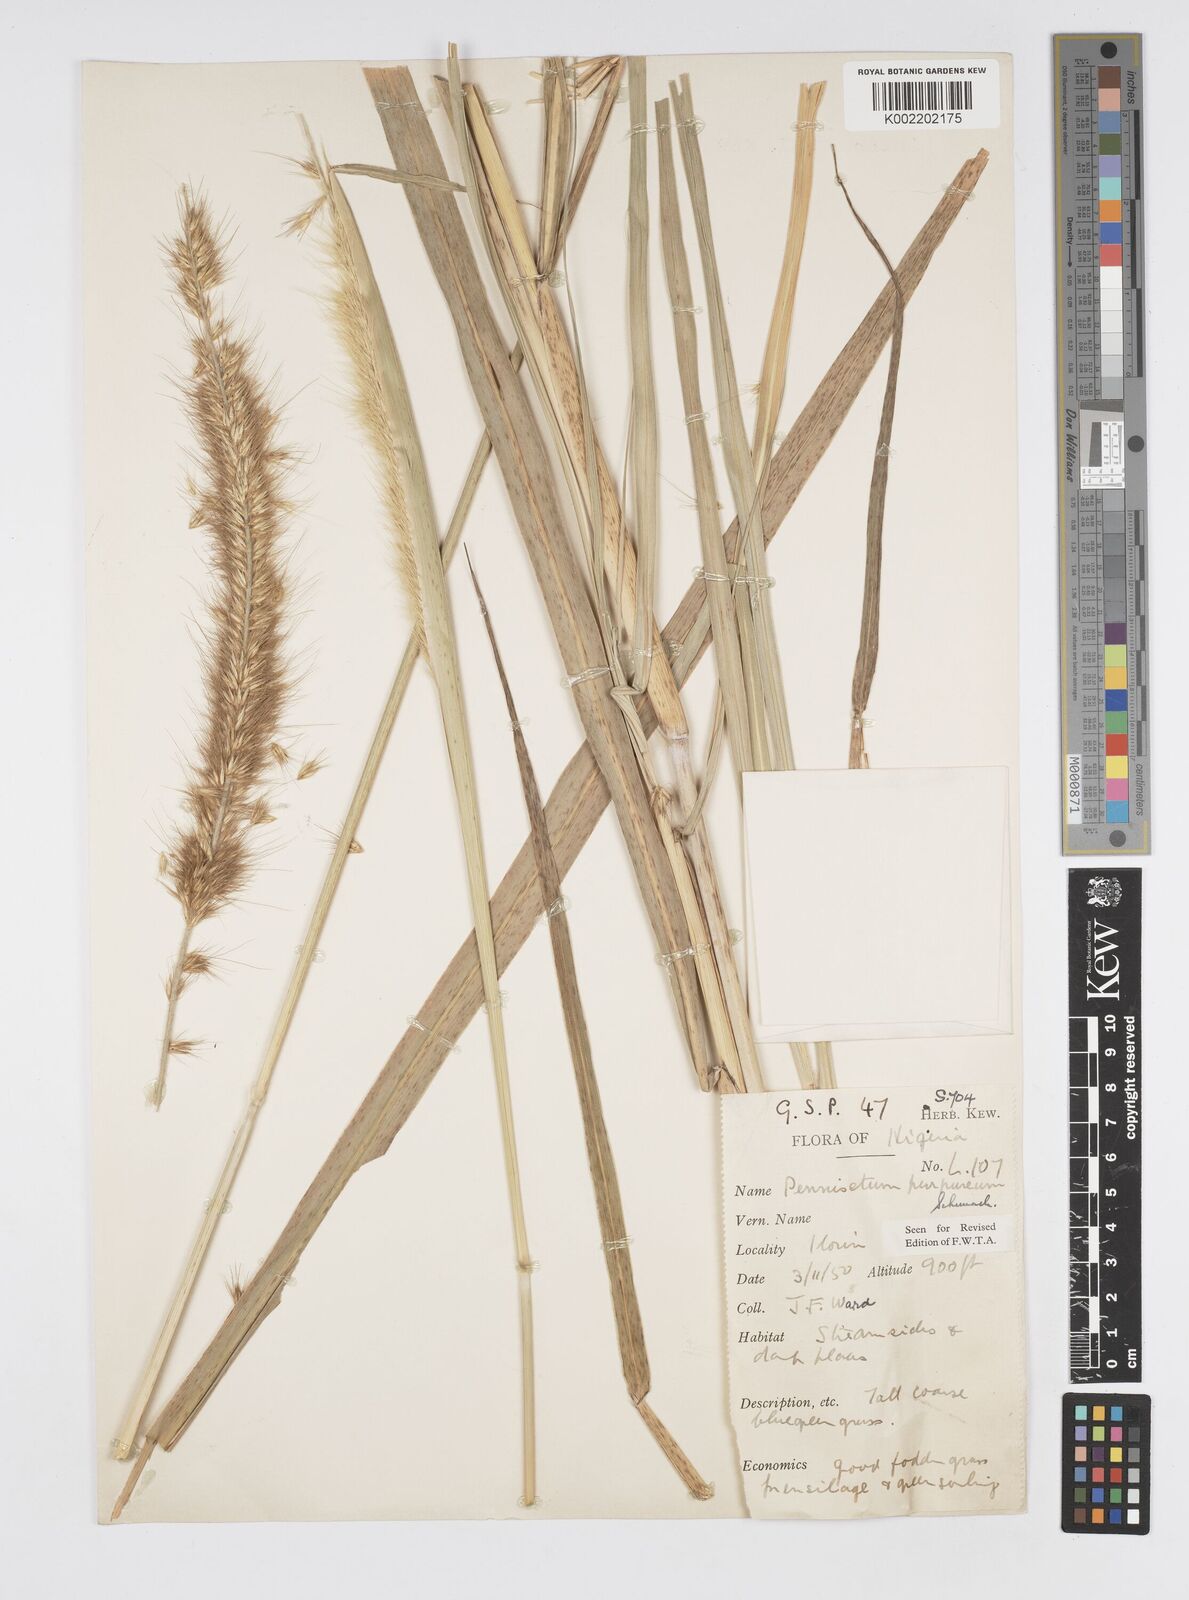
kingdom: Plantae
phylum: Tracheophyta
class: Liliopsida
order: Poales
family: Poaceae
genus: Cenchrus
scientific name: Cenchrus purpureus
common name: Elephant grass
